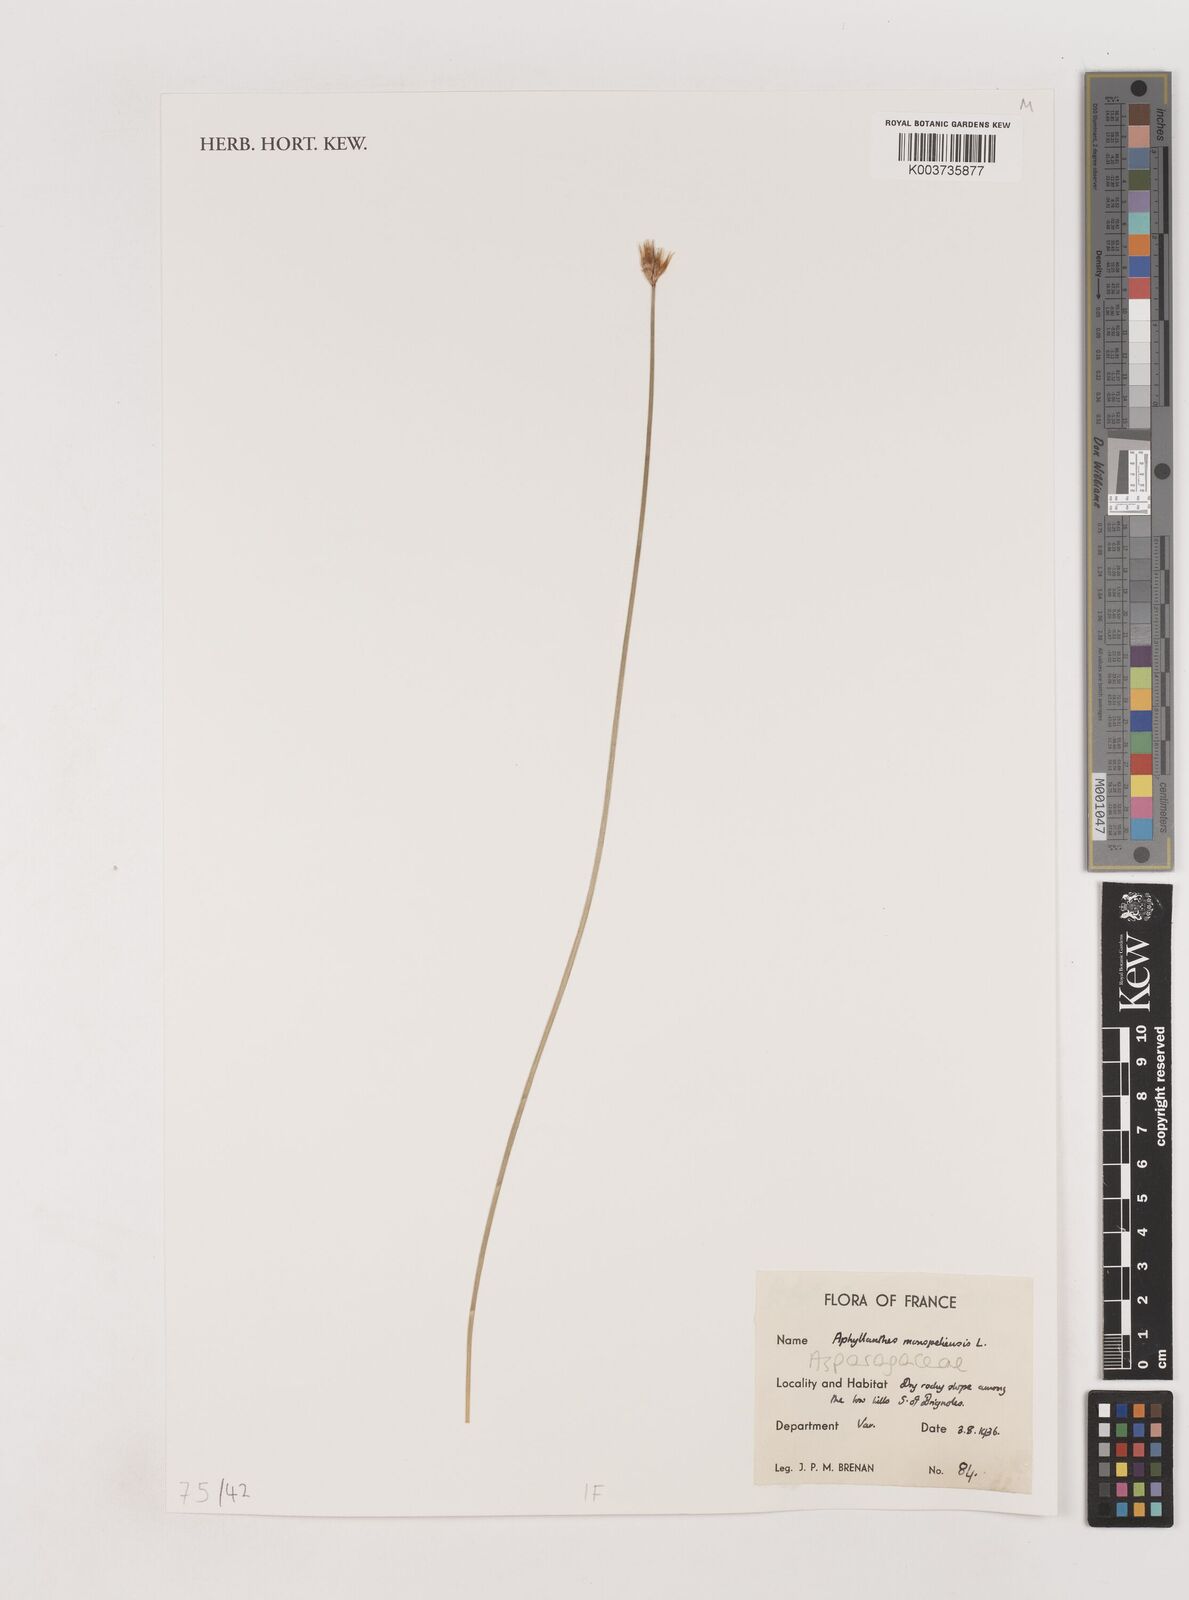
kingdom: Plantae
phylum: Tracheophyta
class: Liliopsida
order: Asparagales
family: Asparagaceae
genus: Aphyllanthes
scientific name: Aphyllanthes monspeliensis
